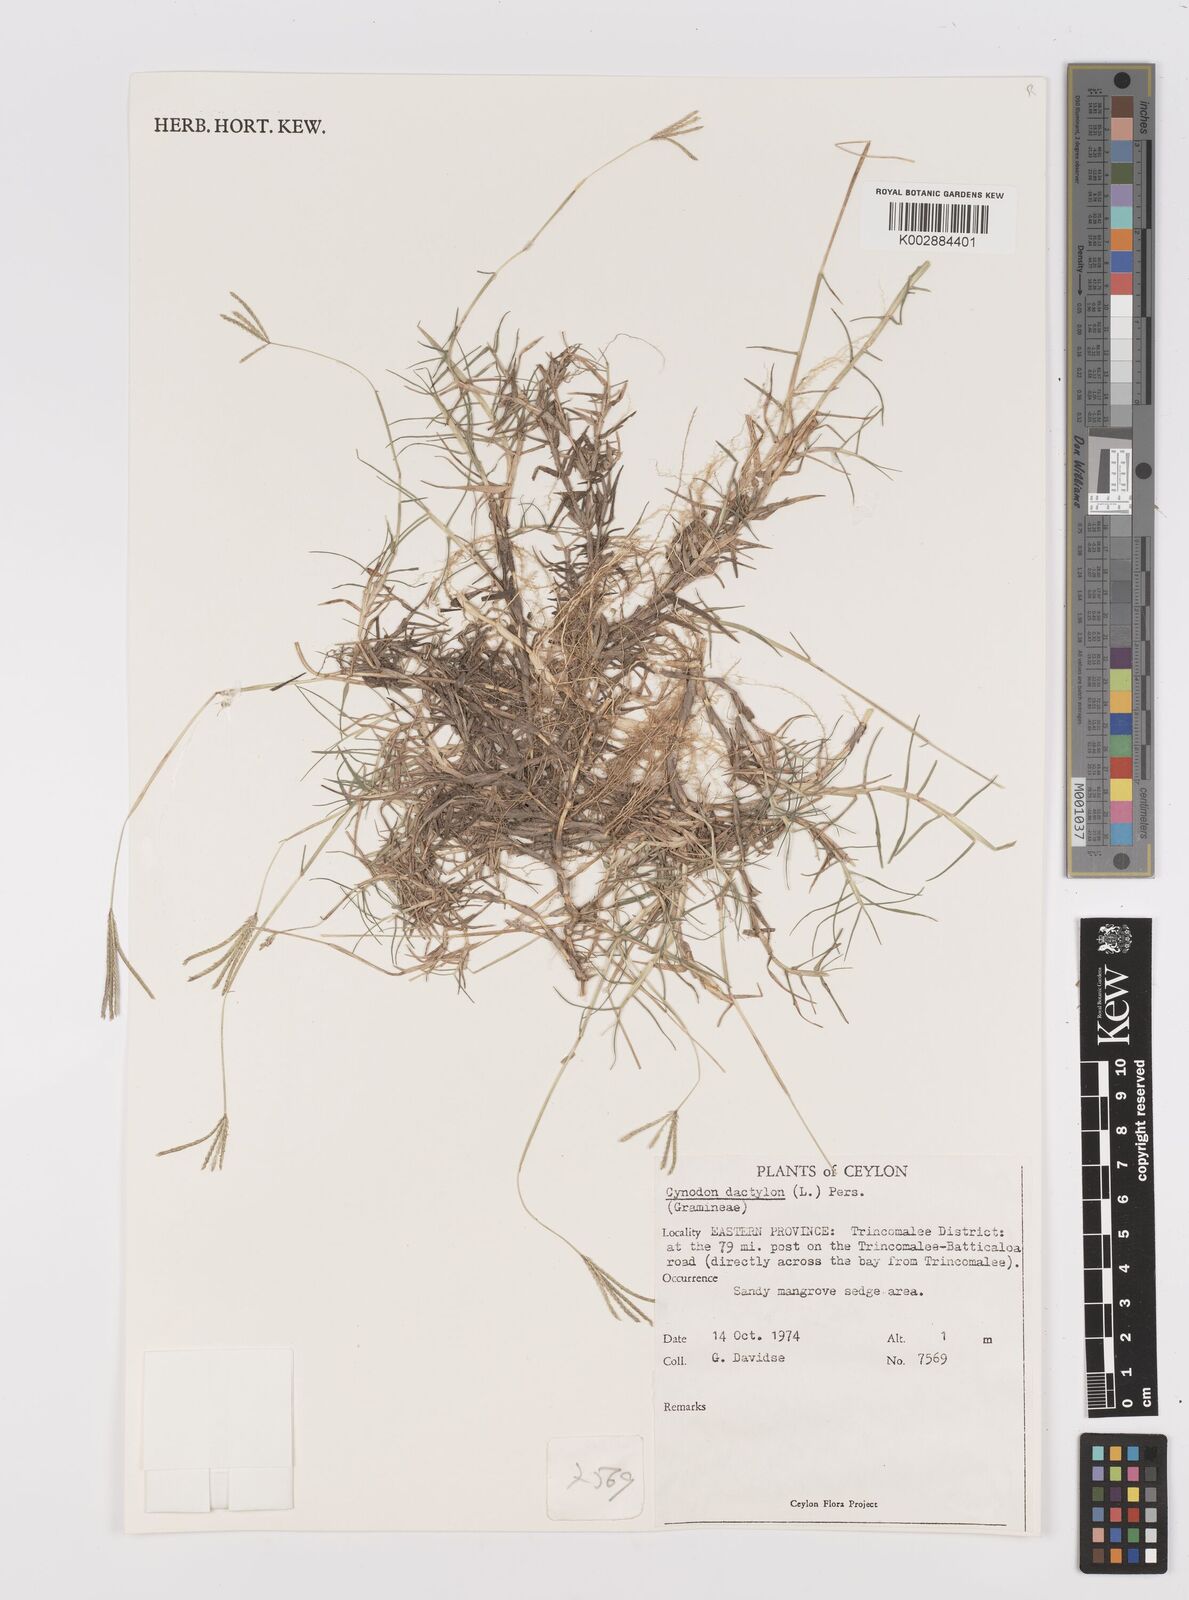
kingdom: Plantae
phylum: Tracheophyta
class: Liliopsida
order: Poales
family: Poaceae
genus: Cynodon
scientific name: Cynodon dactylon
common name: Bermuda grass
